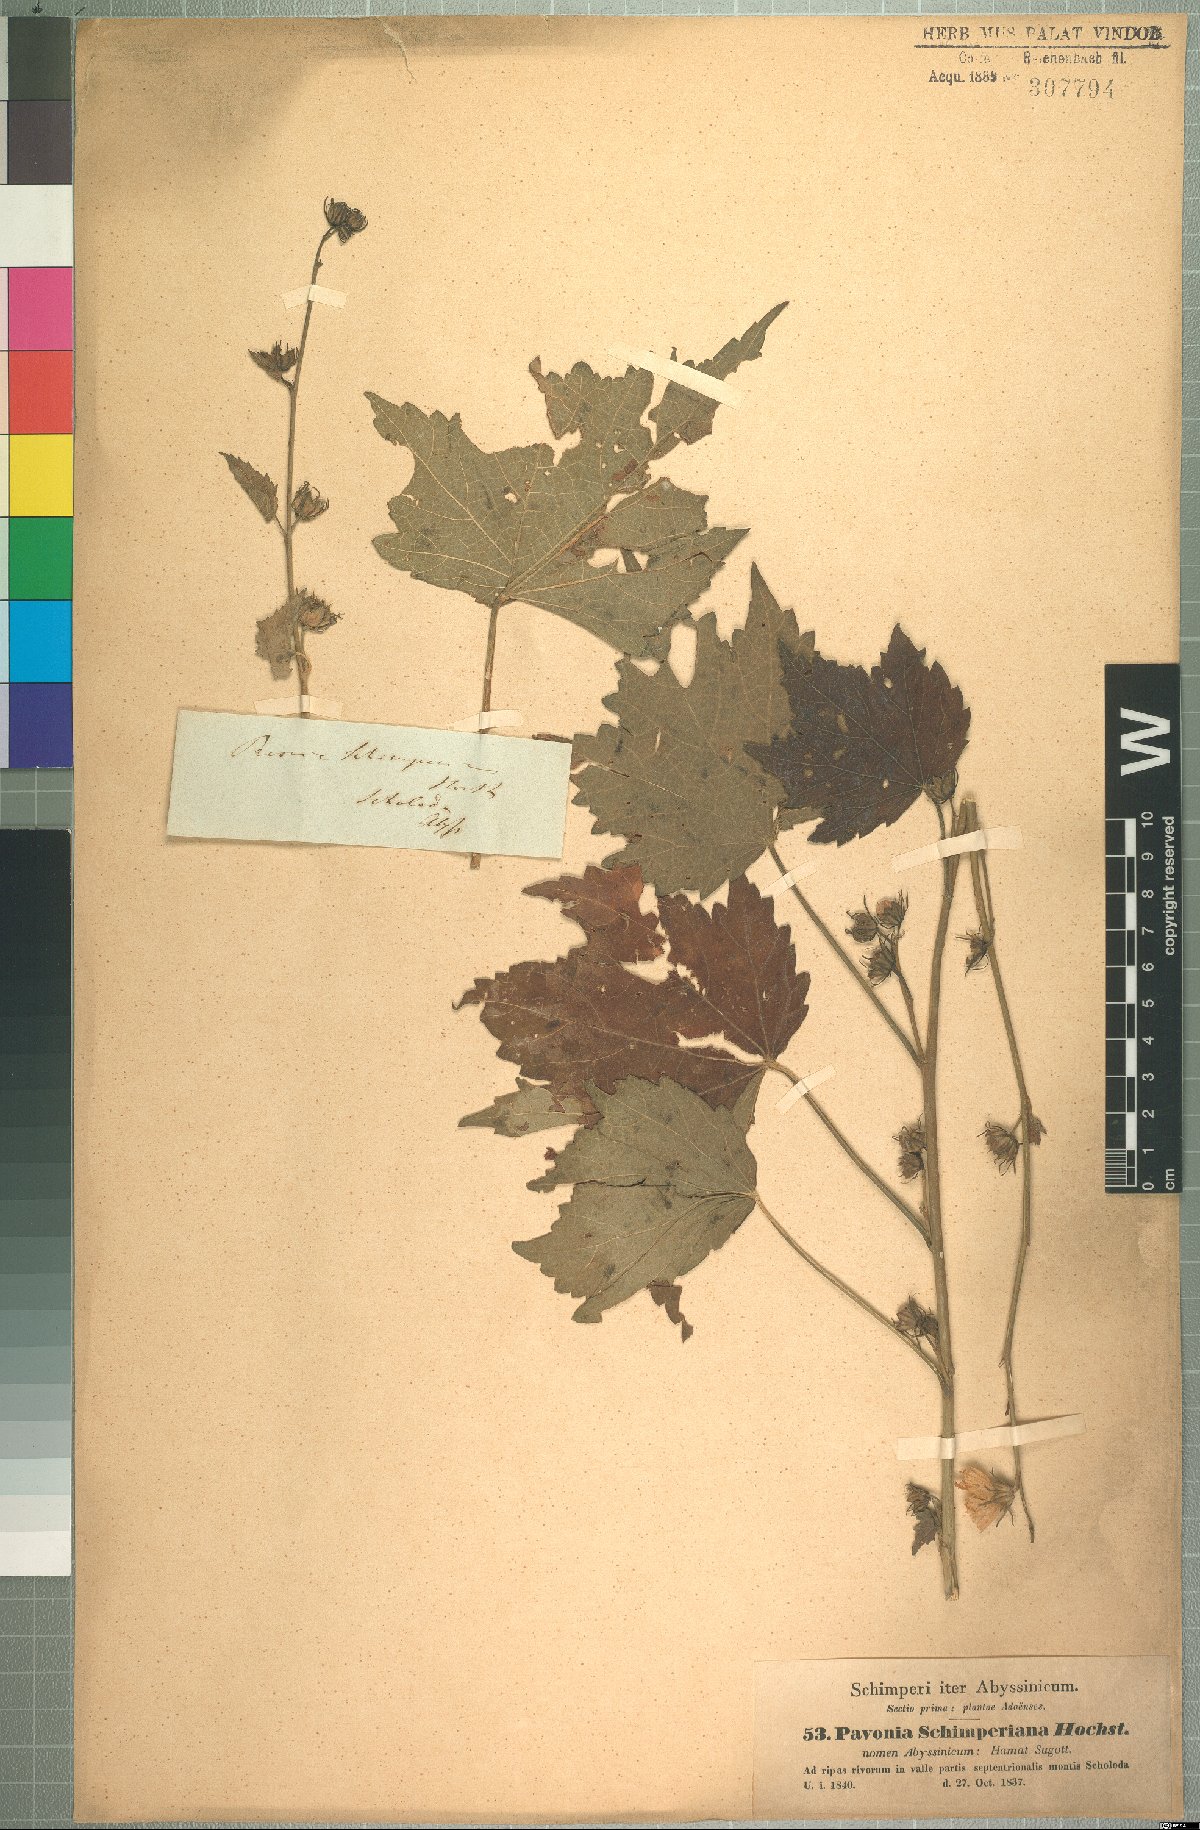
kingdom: Plantae
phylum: Tracheophyta
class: Magnoliopsida
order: Malvales
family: Malvaceae
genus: Pavonia
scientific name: Pavonia schimperiana
